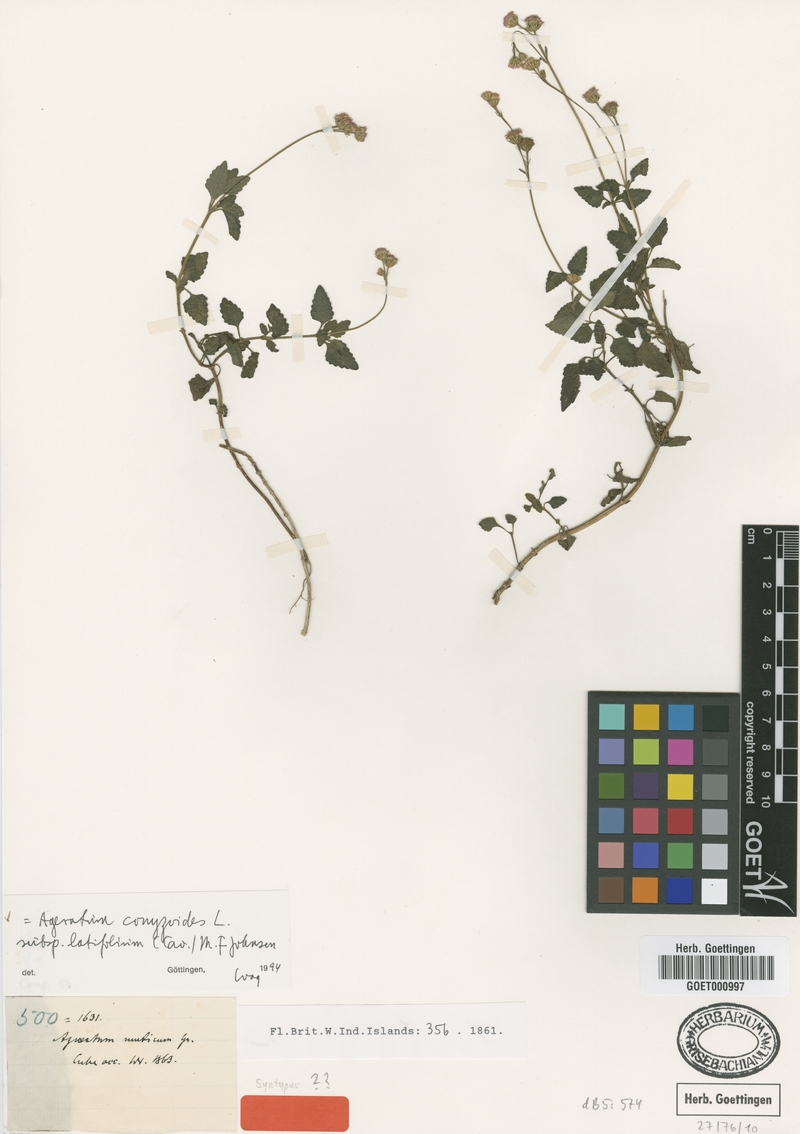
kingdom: Plantae
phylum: Tracheophyta
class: Magnoliopsida
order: Asterales
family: Asteraceae
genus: Ageratum
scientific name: Ageratum oerstedii
